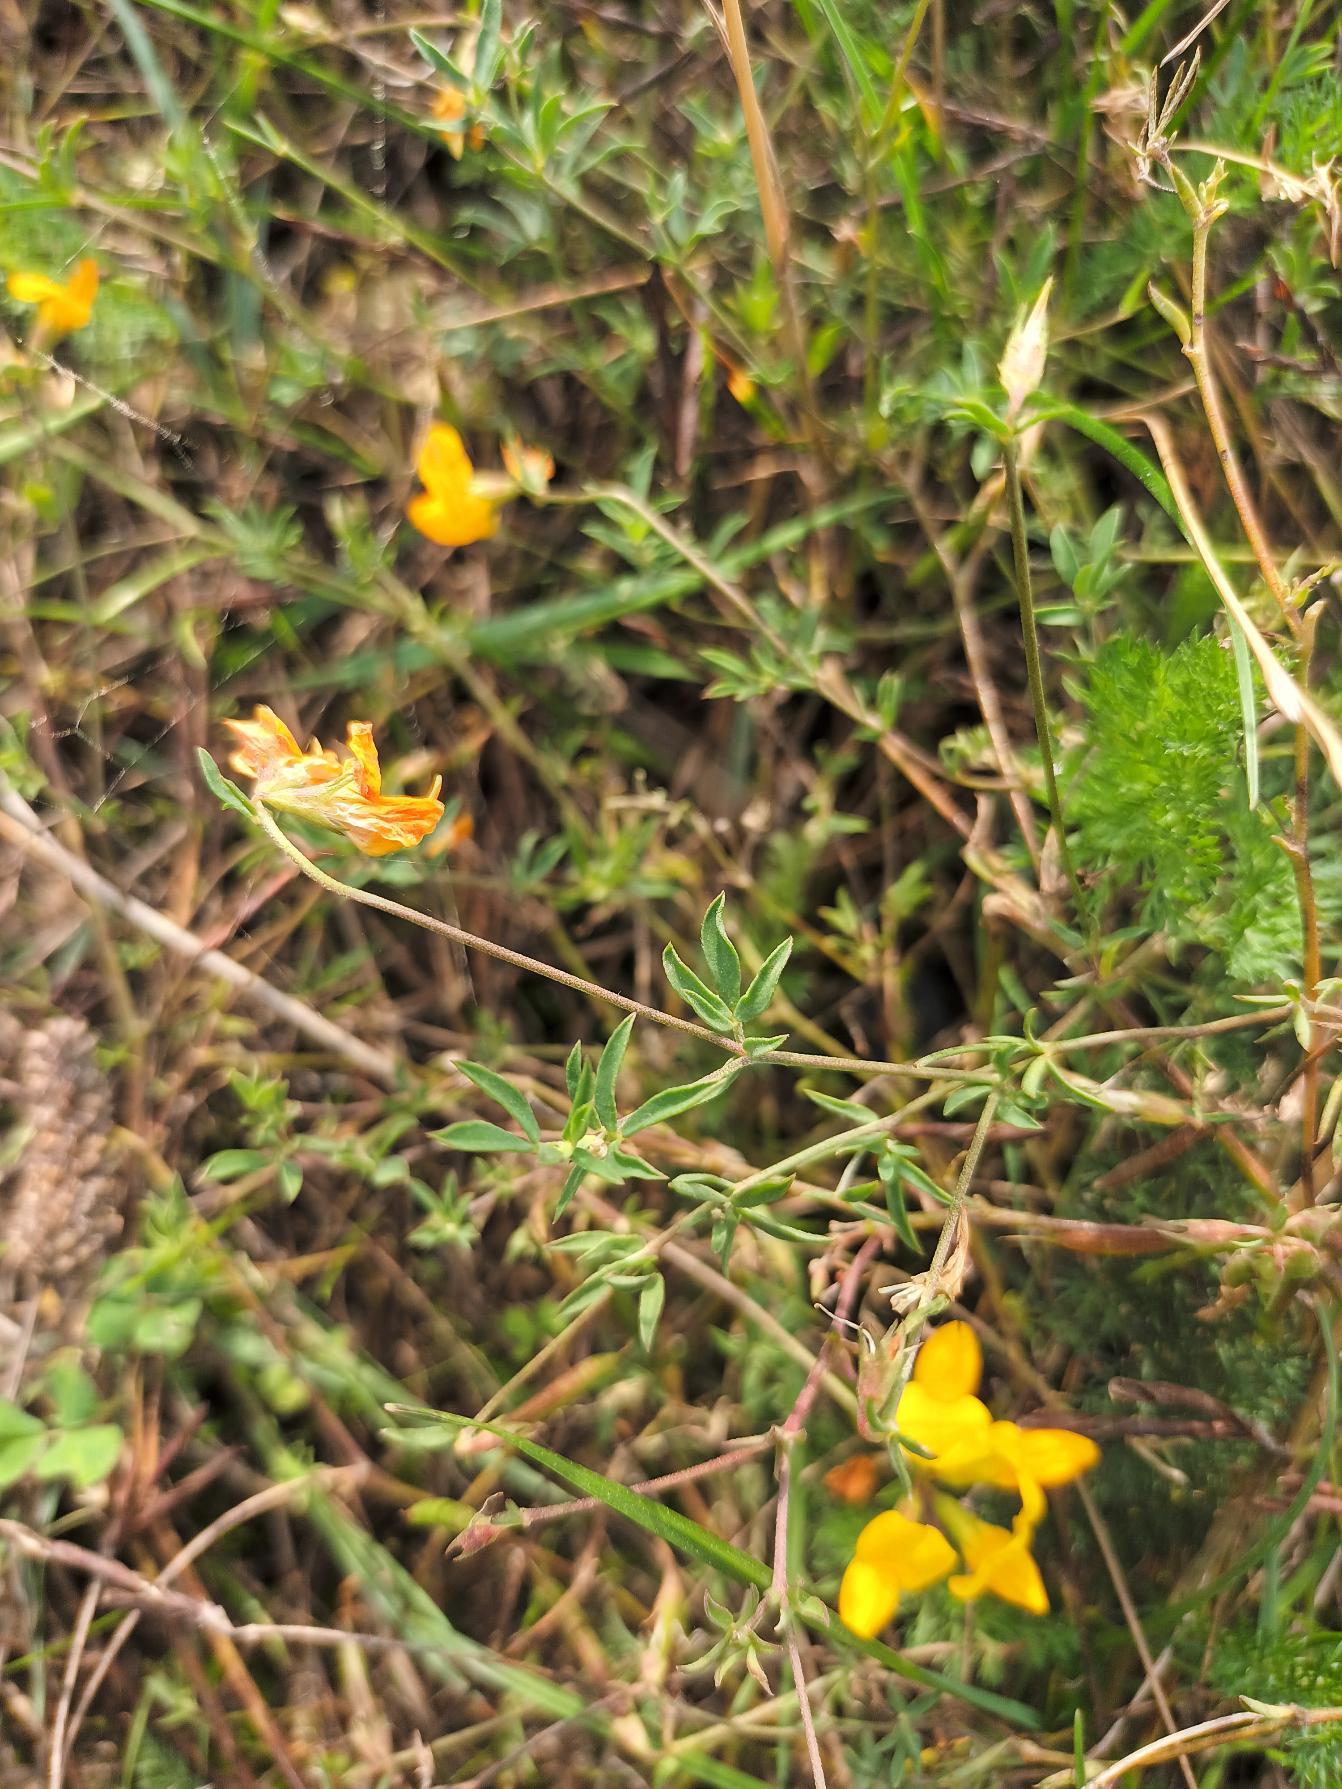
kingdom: Plantae
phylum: Tracheophyta
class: Magnoliopsida
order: Fabales
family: Fabaceae
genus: Lotus
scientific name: Lotus tenuis
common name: Smalbladet kællingetand
